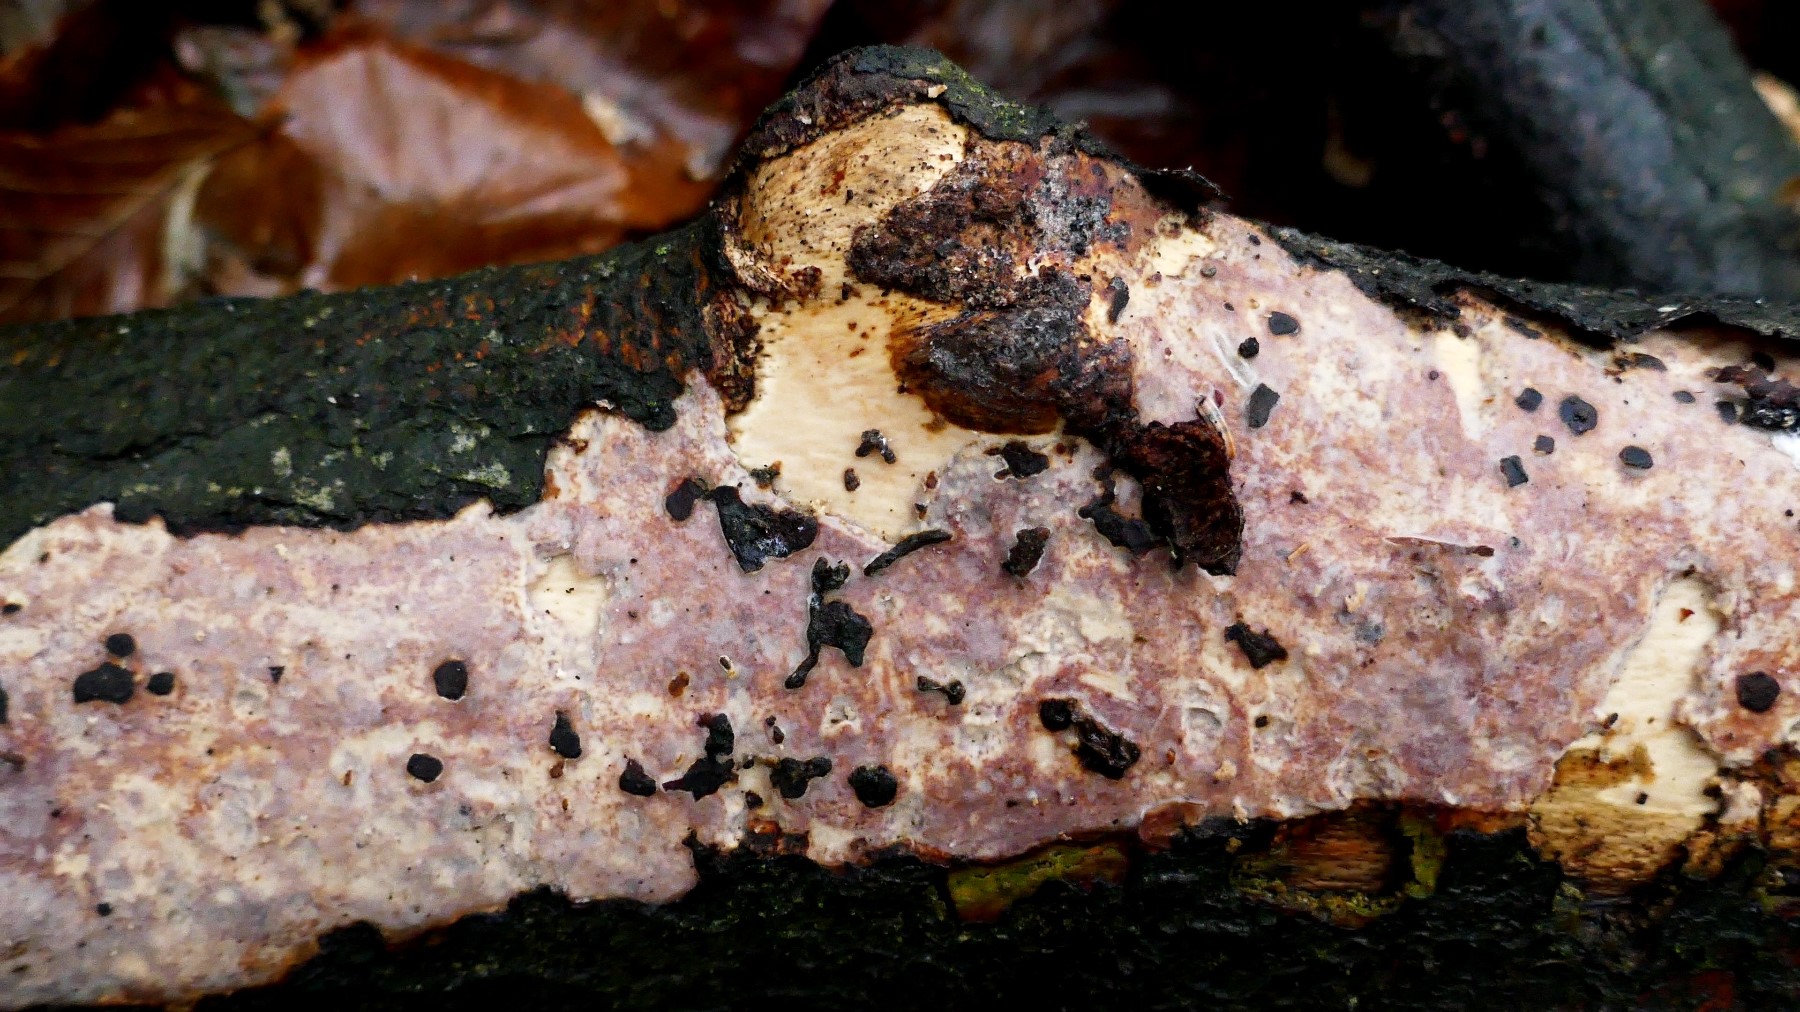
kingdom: Fungi
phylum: Basidiomycota
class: Agaricomycetes
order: Corticiales
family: Vuilleminiaceae
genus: Vuilleminia
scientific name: Vuilleminia comedens
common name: almindelig barksprænger
